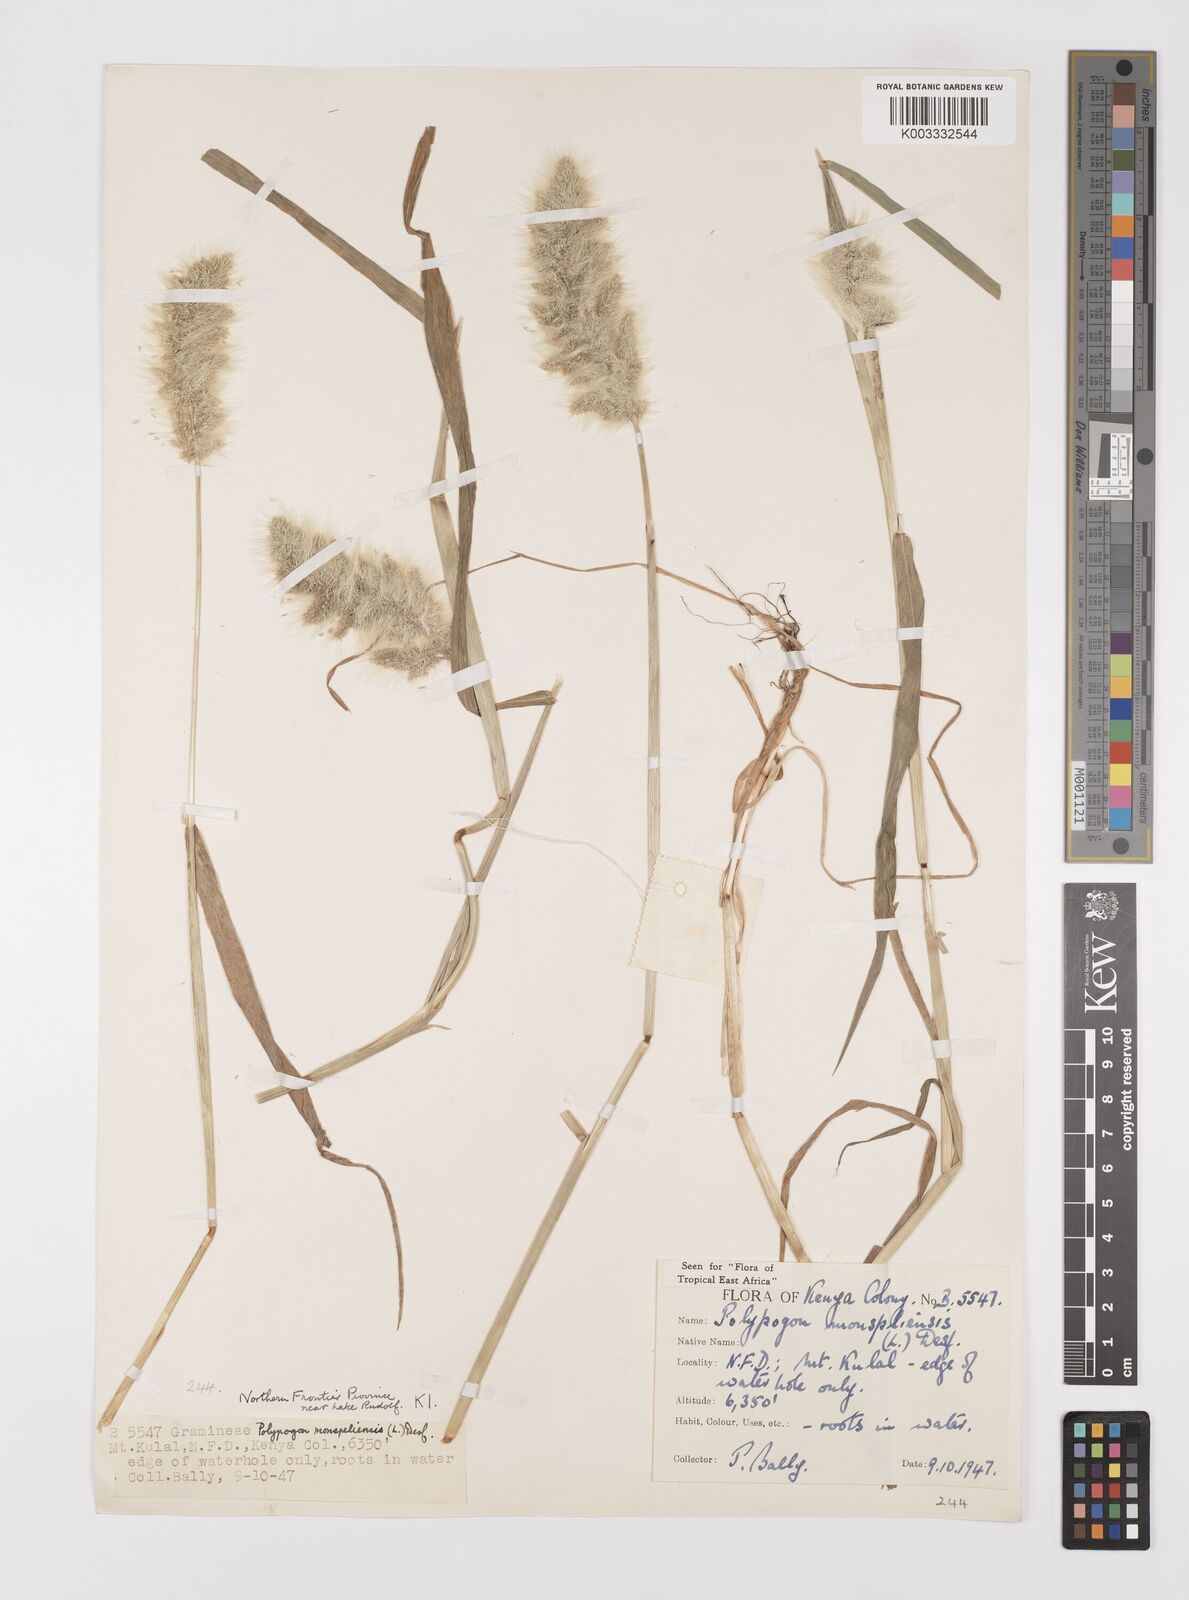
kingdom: Plantae
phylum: Tracheophyta
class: Liliopsida
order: Poales
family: Poaceae
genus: Polypogon
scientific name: Polypogon monspeliensis
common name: Annual rabbitsfoot grass
